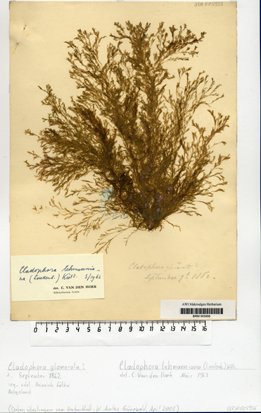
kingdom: Plantae
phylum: Chlorophyta
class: Ulvophyceae
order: Cladophorales
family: Cladophoraceae
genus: Cladophora
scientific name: Cladophora lehmanniana
